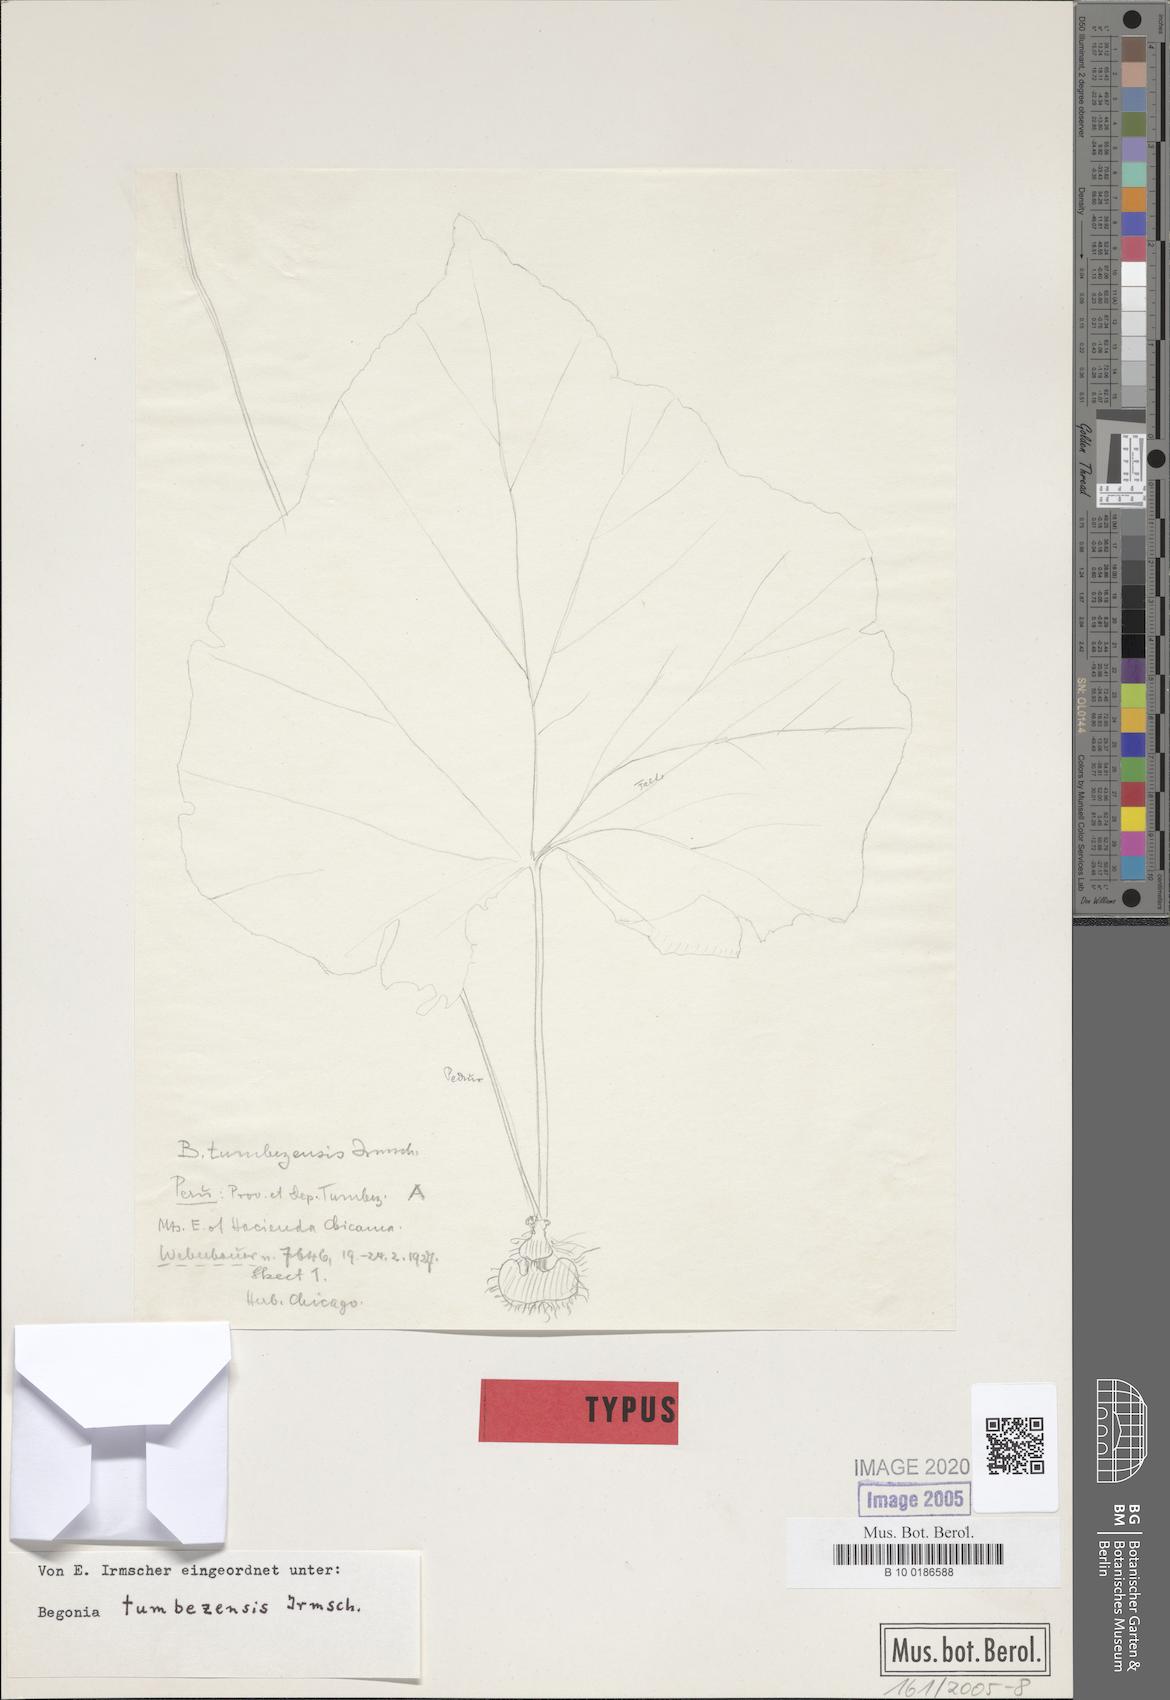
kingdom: Plantae
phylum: Tracheophyta
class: Magnoliopsida
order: Cucurbitales
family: Begoniaceae
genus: Begonia
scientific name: Begonia tumbezensis
